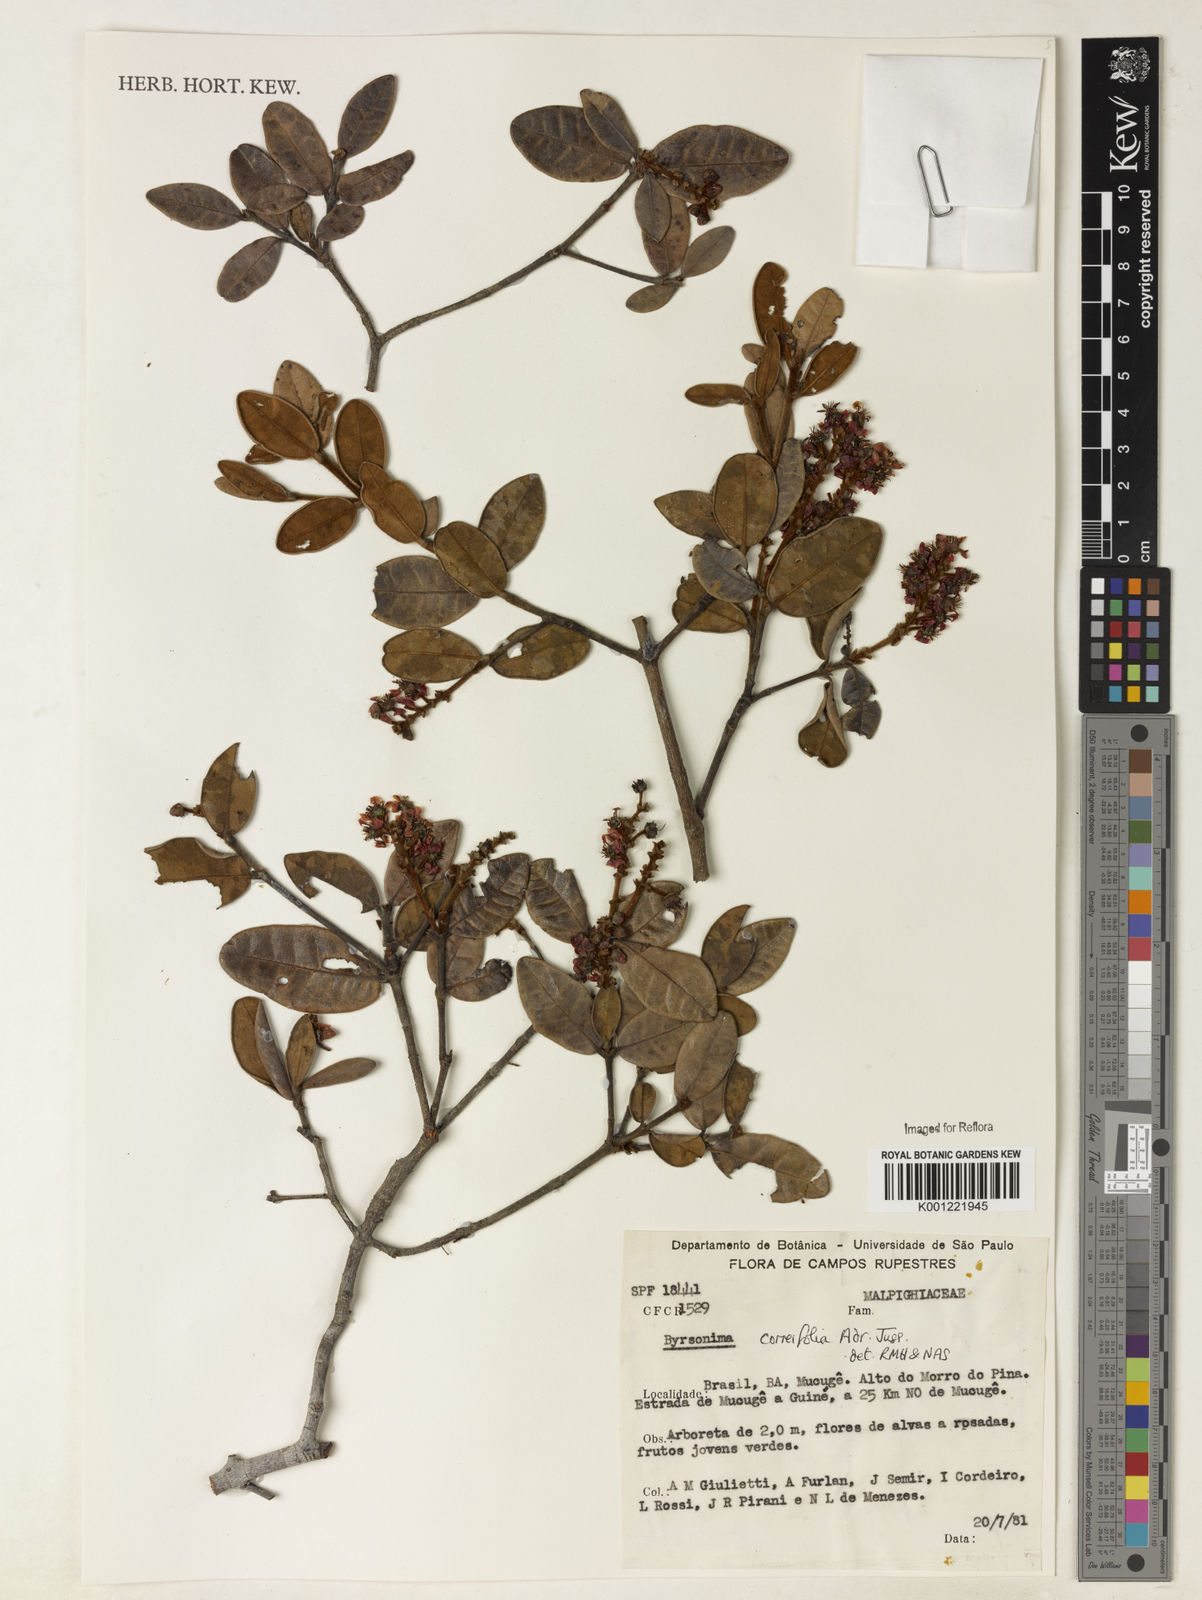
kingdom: Plantae
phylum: Tracheophyta
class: Magnoliopsida
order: Malpighiales
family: Malpighiaceae
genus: Byrsonima
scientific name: Byrsonima correifolia
